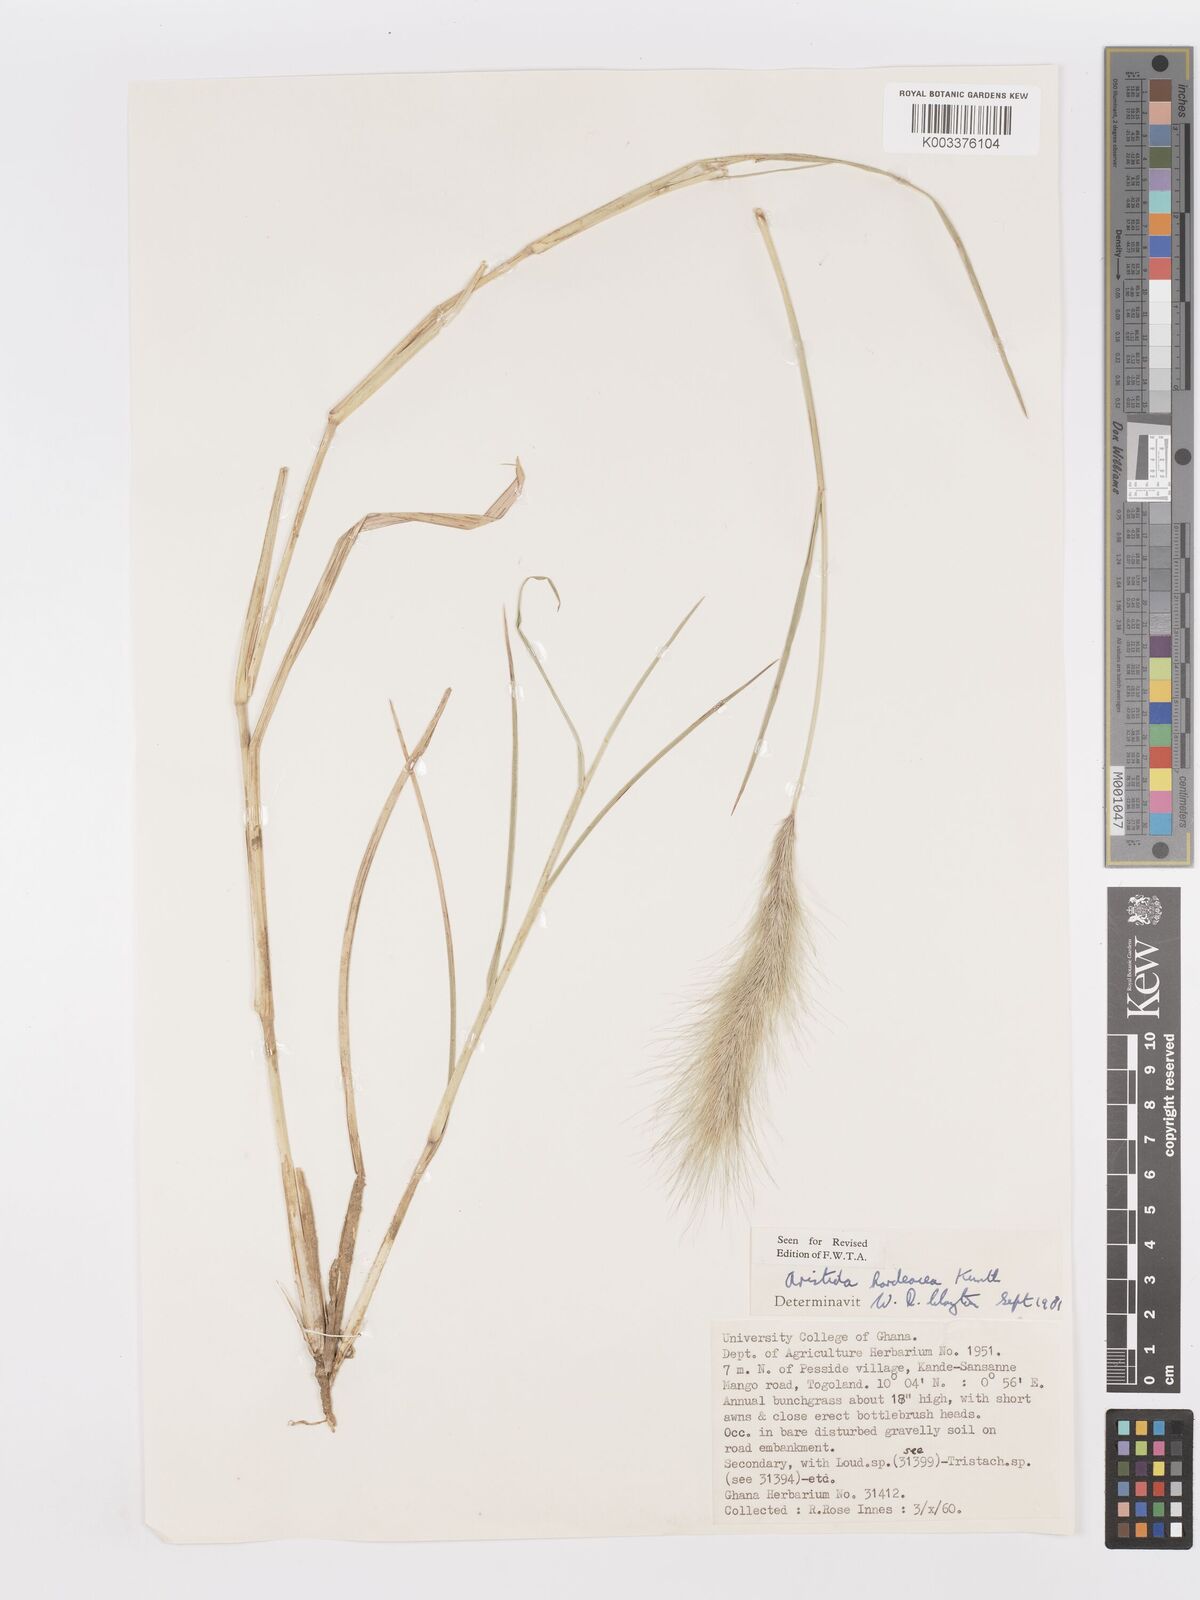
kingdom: Plantae
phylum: Tracheophyta
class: Liliopsida
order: Poales
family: Poaceae
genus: Aristida
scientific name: Aristida hordeacea
